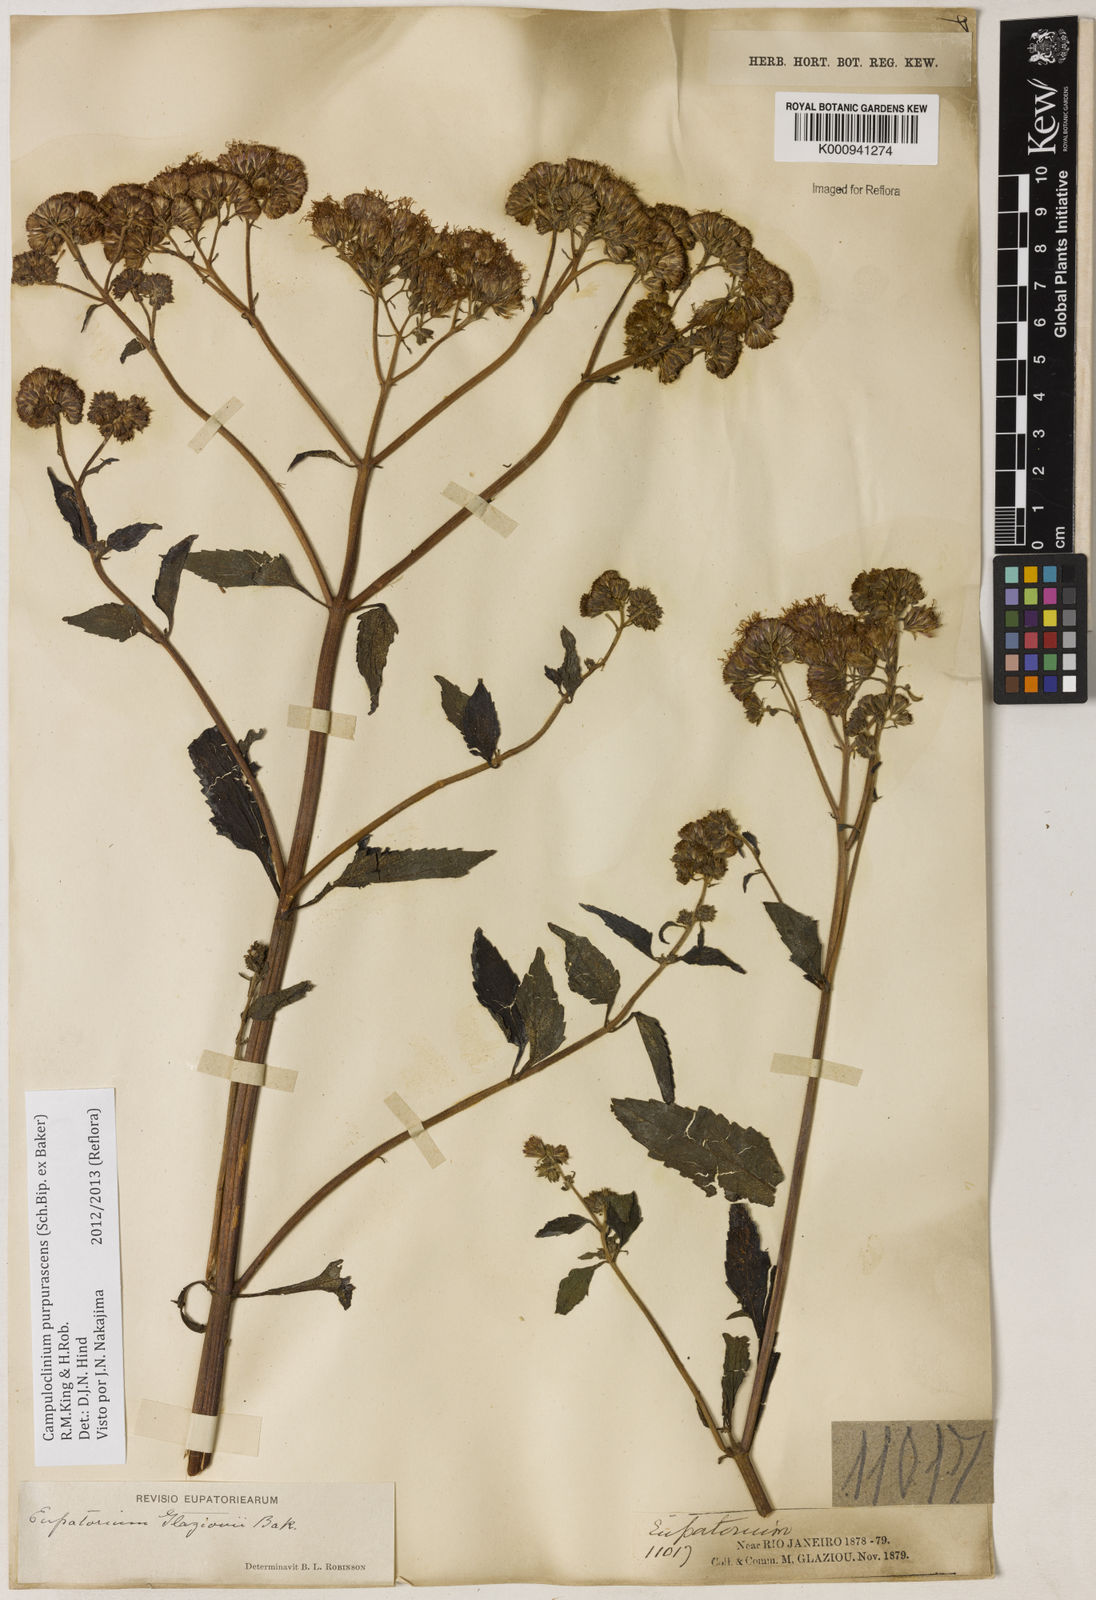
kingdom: Plantae
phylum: Tracheophyta
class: Magnoliopsida
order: Asterales
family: Asteraceae
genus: Campuloclinium
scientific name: Campuloclinium purpurascens
